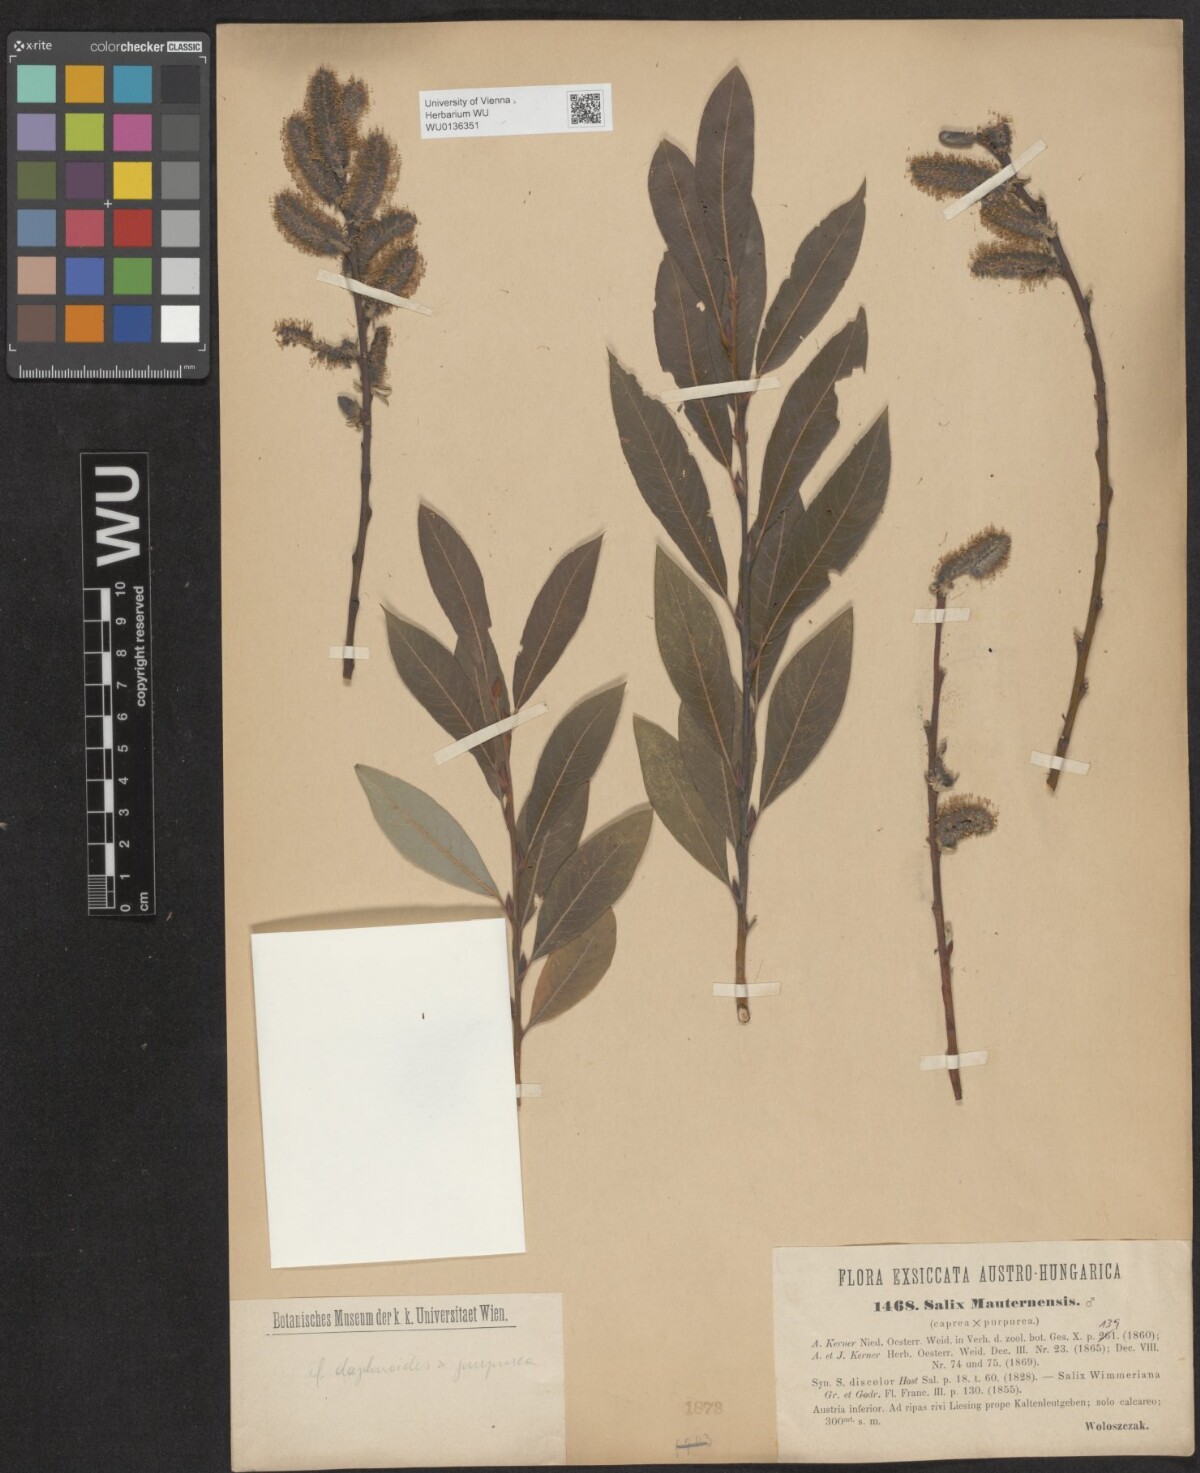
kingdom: Plantae
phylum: Tracheophyta
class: Magnoliopsida
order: Malpighiales
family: Salicaceae
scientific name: Salicaceae
